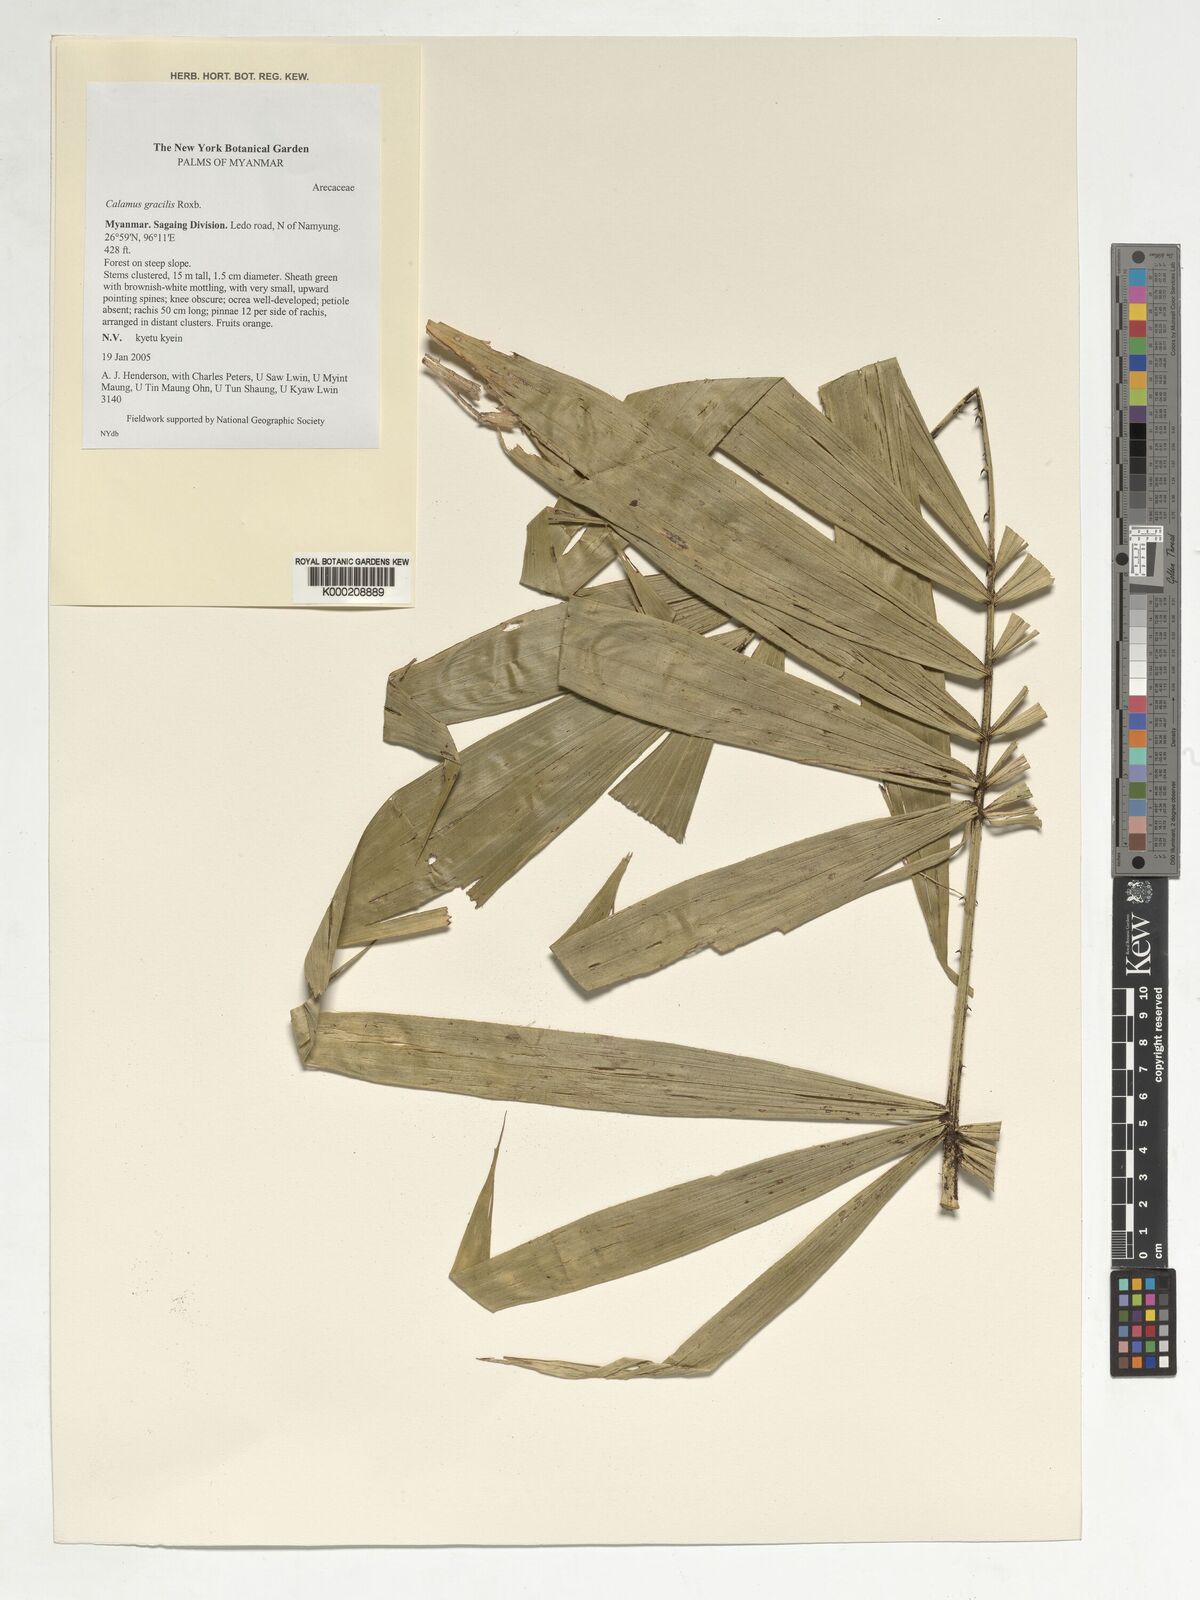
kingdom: Plantae
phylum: Tracheophyta
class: Liliopsida
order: Arecales
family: Arecaceae
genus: Calamus
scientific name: Calamus gracilis
